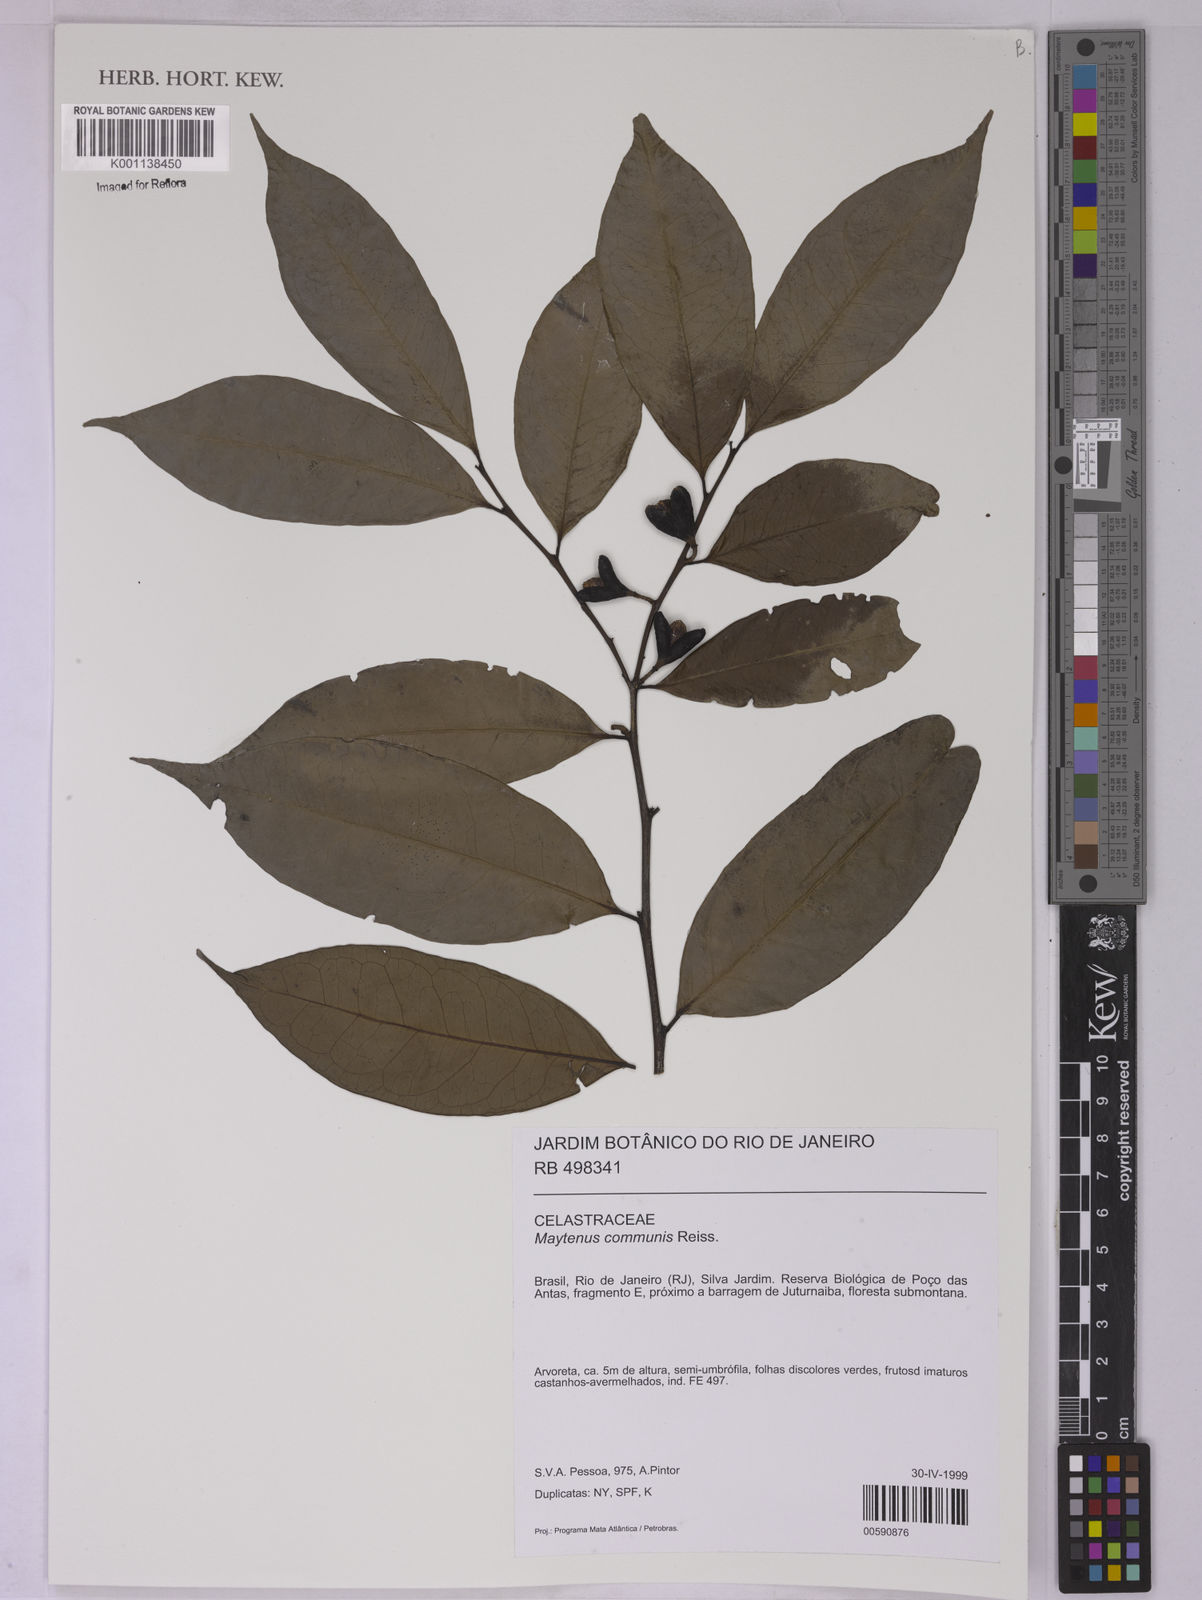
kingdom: Plantae
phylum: Tracheophyta
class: Magnoliopsida
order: Celastrales
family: Celastraceae
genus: Monteverdia
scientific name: Monteverdia communis
